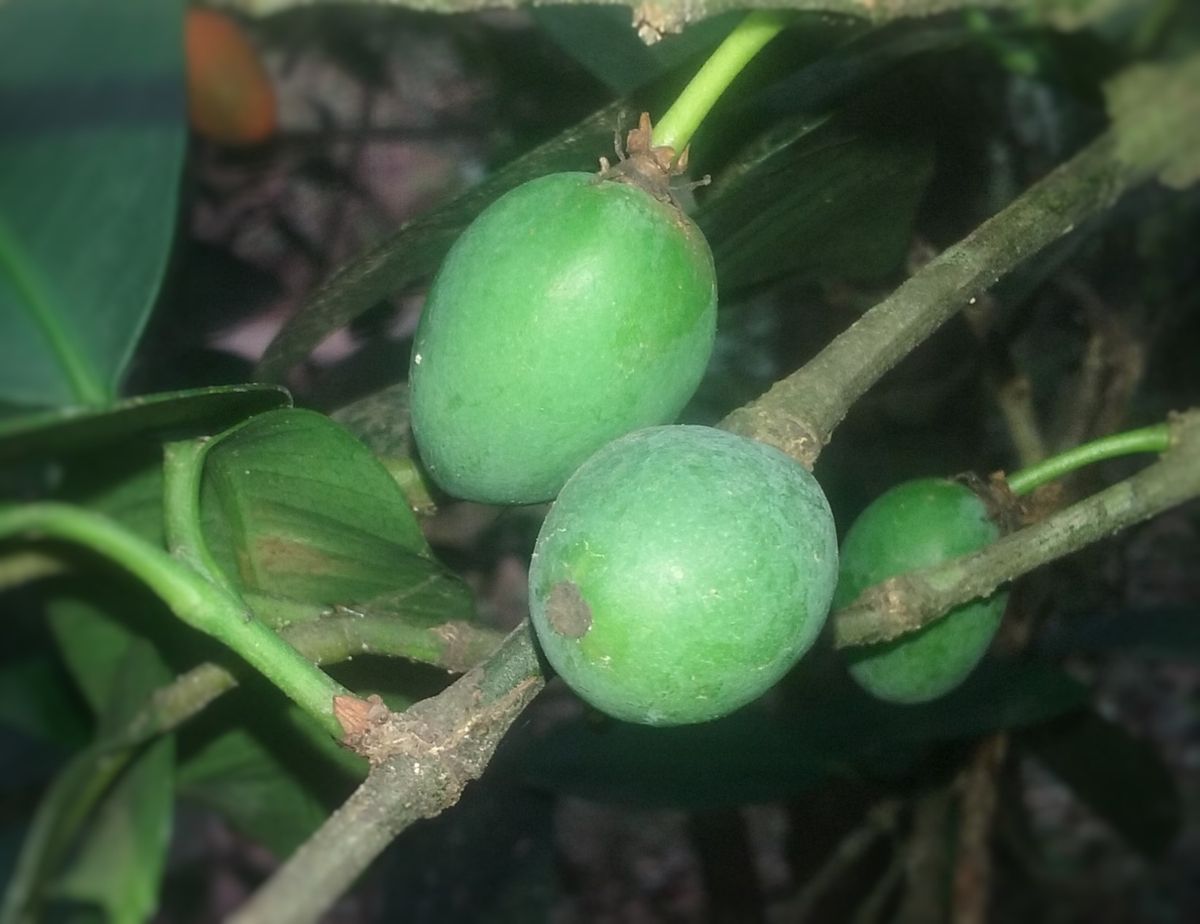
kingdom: Plantae
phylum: Tracheophyta
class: Magnoliopsida
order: Malpighiales
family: Clusiaceae
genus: Garcinia
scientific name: Garcinia intermedia
